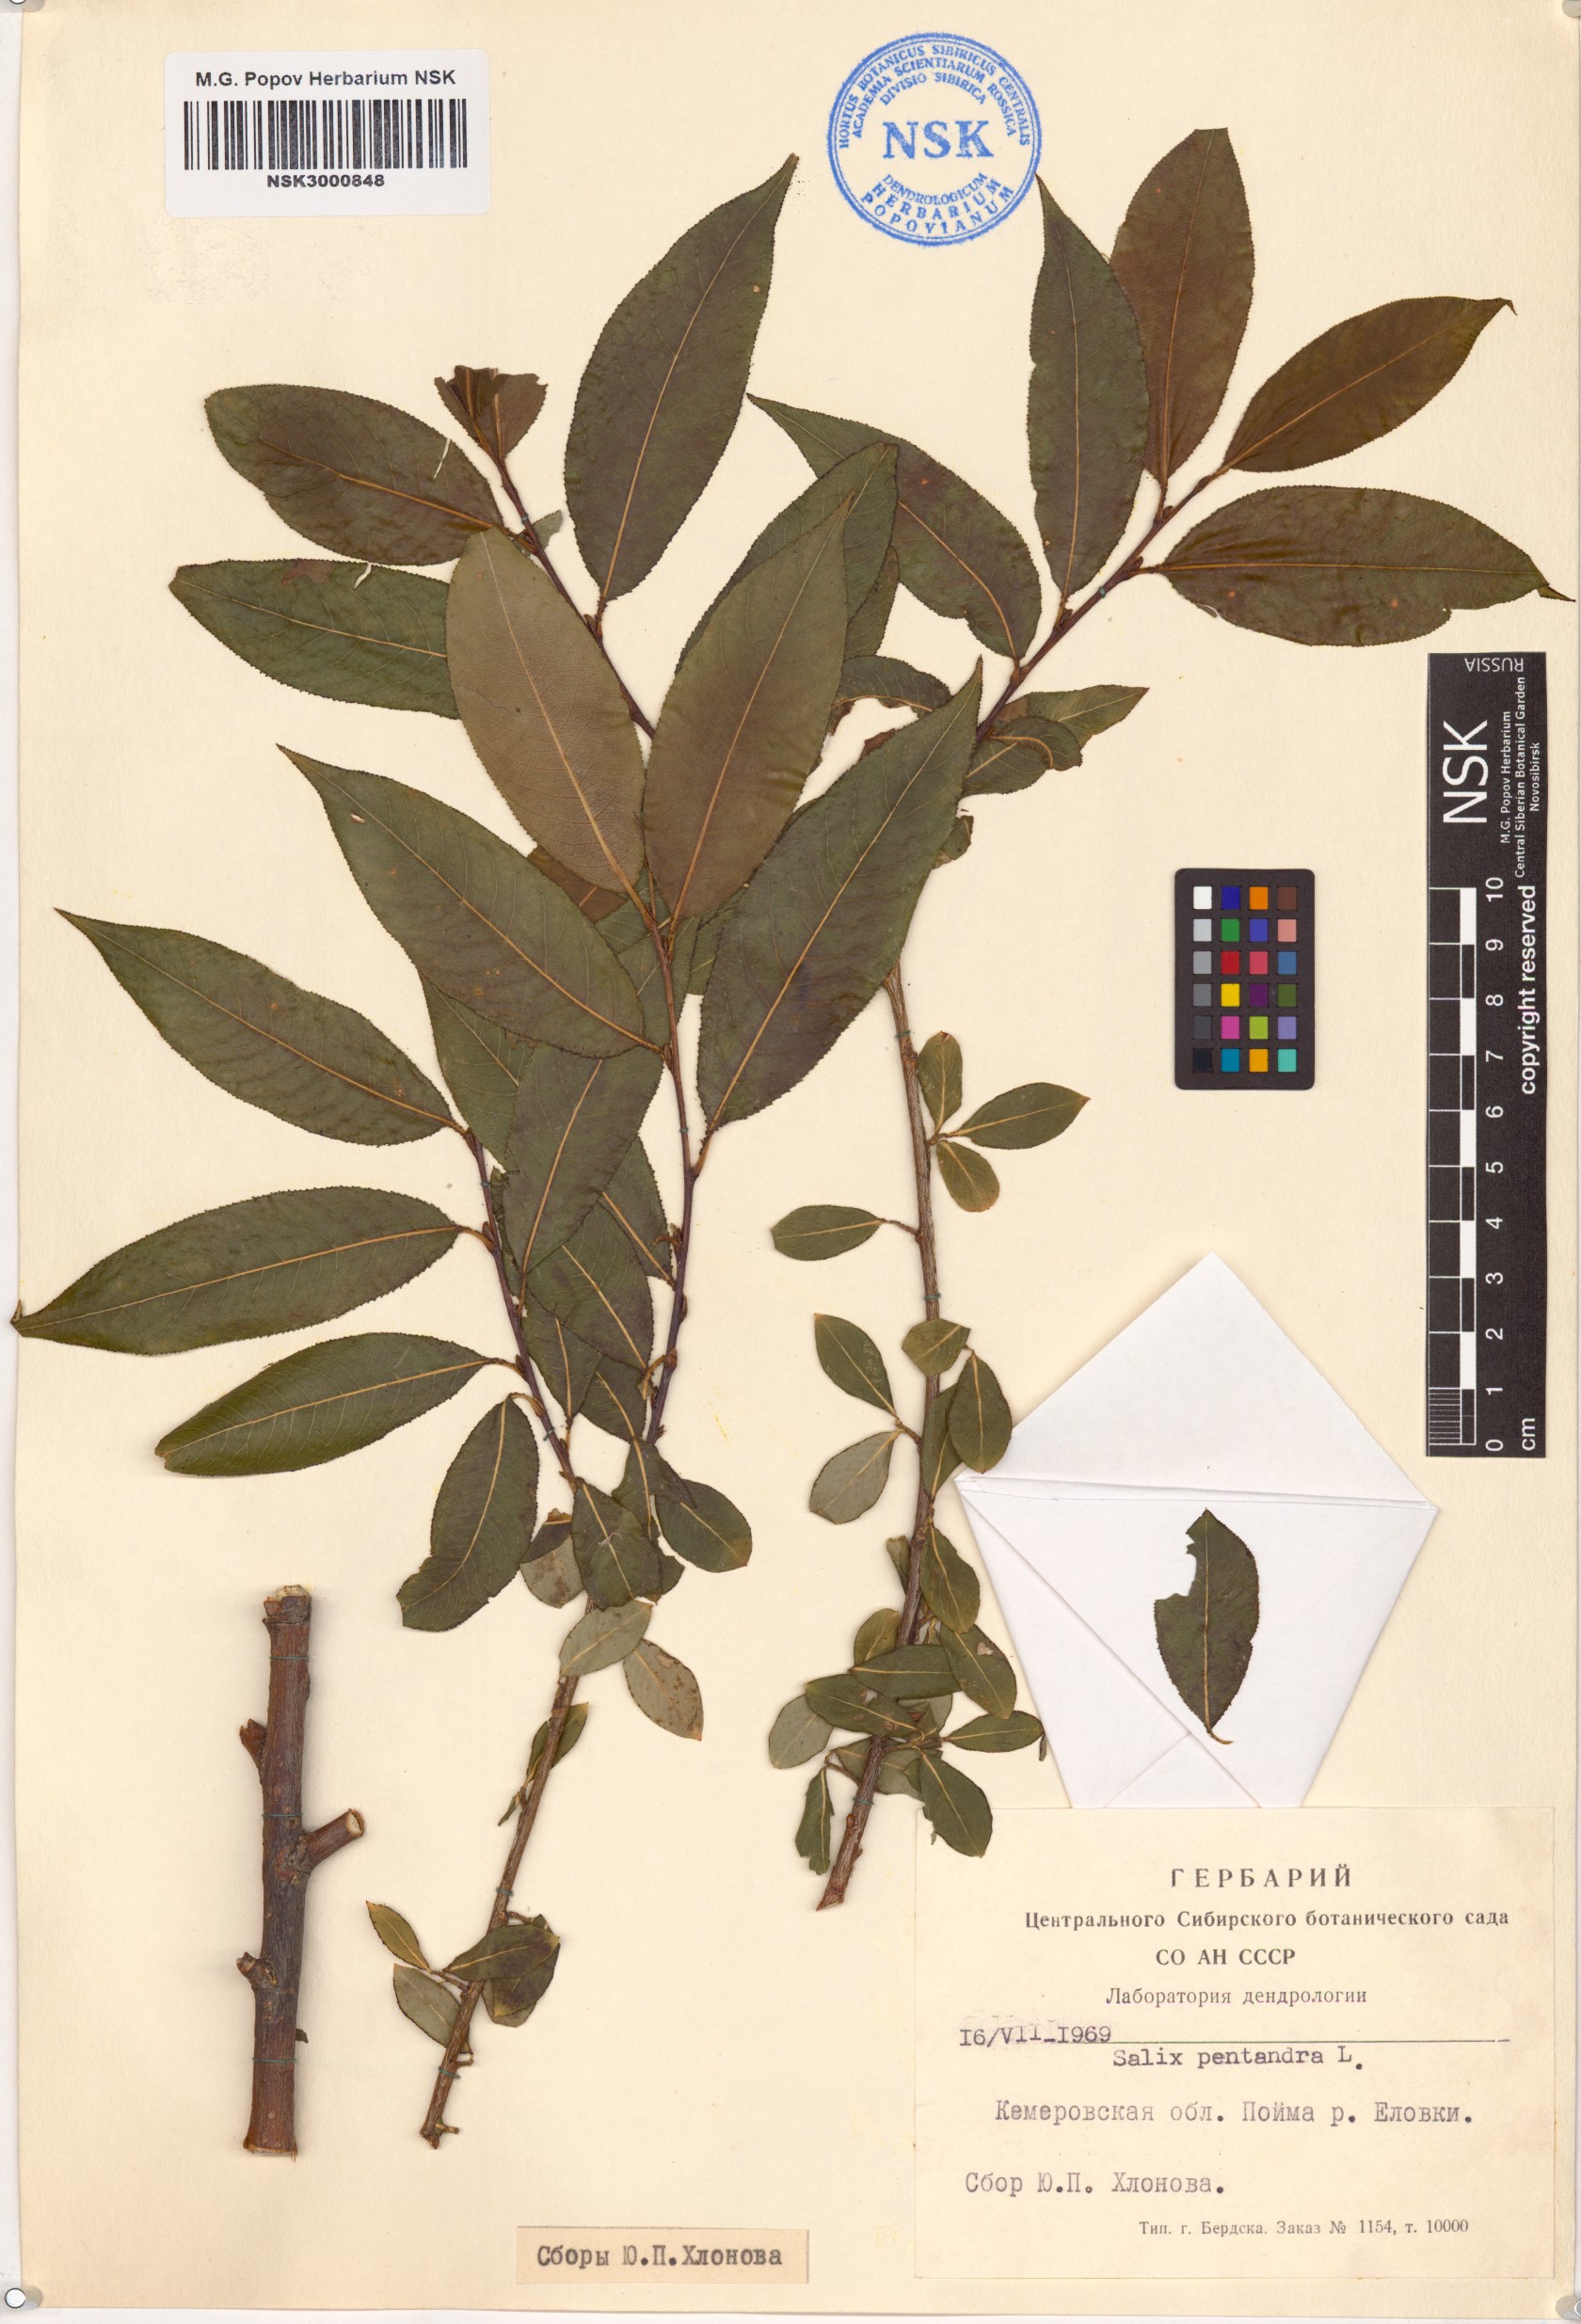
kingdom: Plantae
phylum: Tracheophyta
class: Magnoliopsida
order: Malpighiales
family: Salicaceae
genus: Salix
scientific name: Salix pentandra
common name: Bay willow
